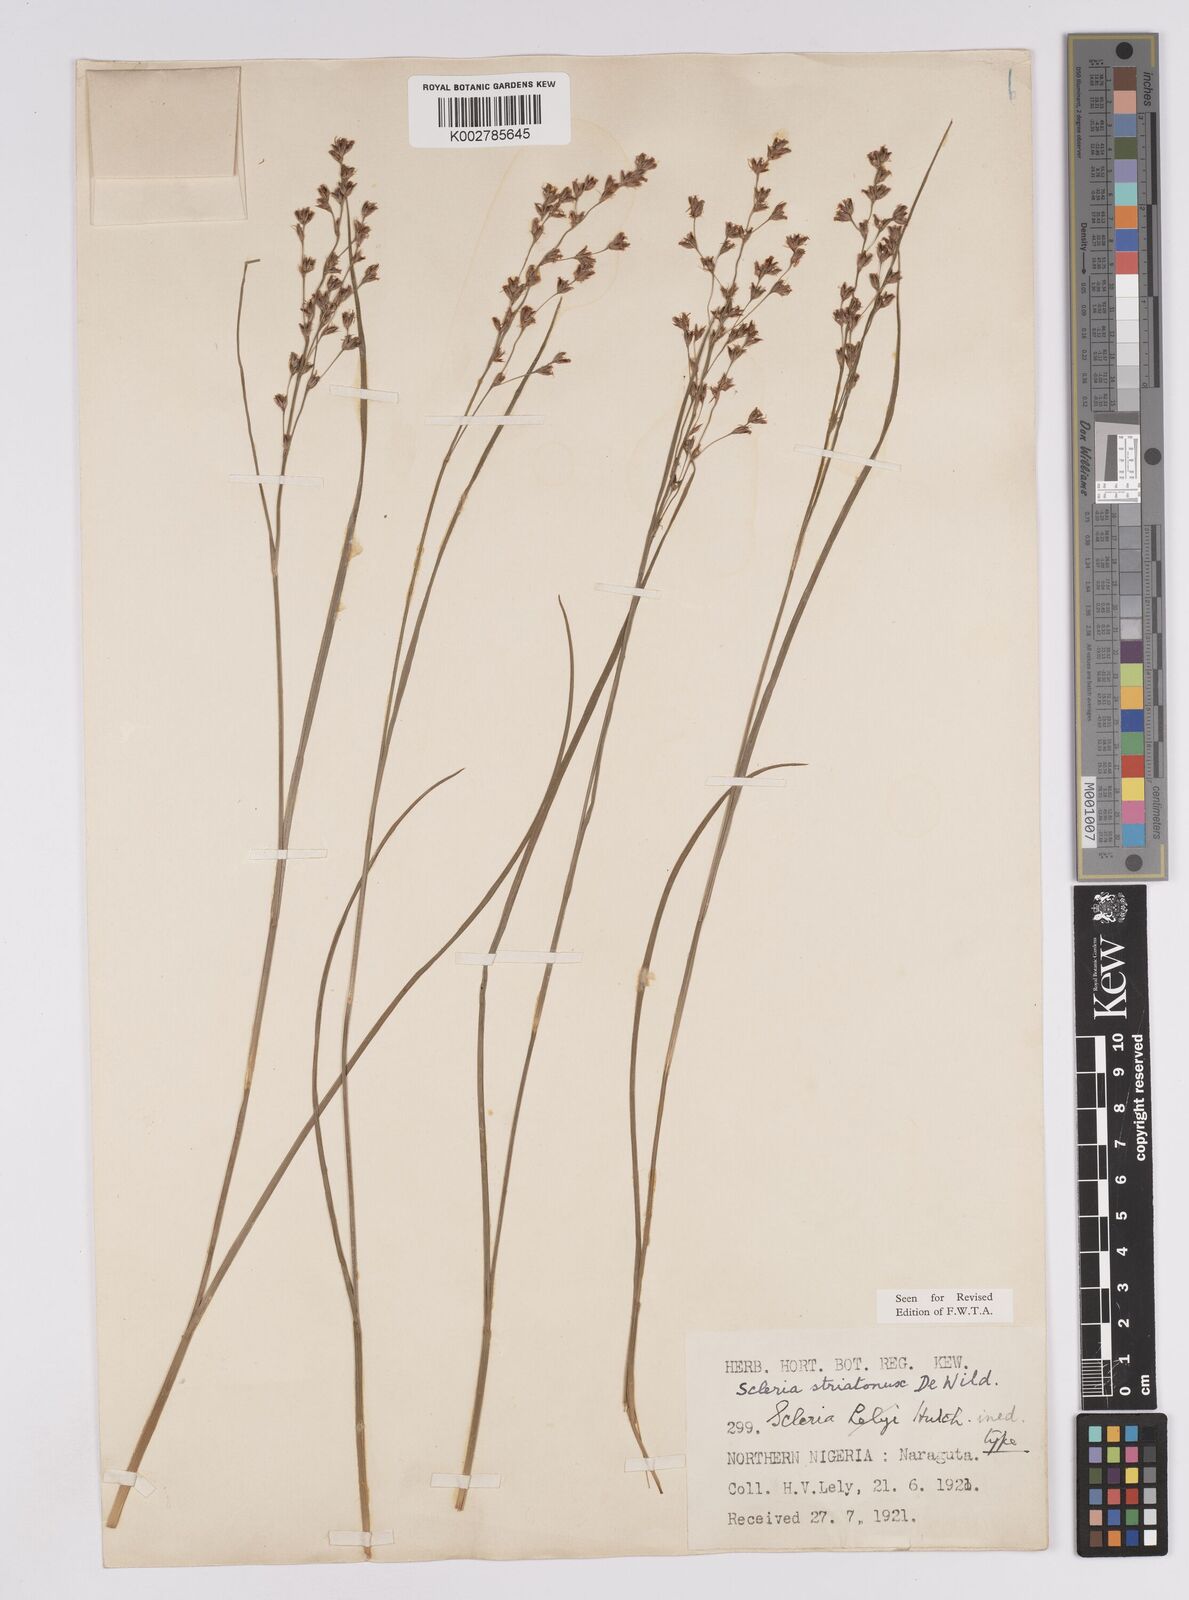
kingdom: Plantae
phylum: Tracheophyta
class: Liliopsida
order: Poales
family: Cyperaceae
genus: Scleria
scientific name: Scleria woodii
